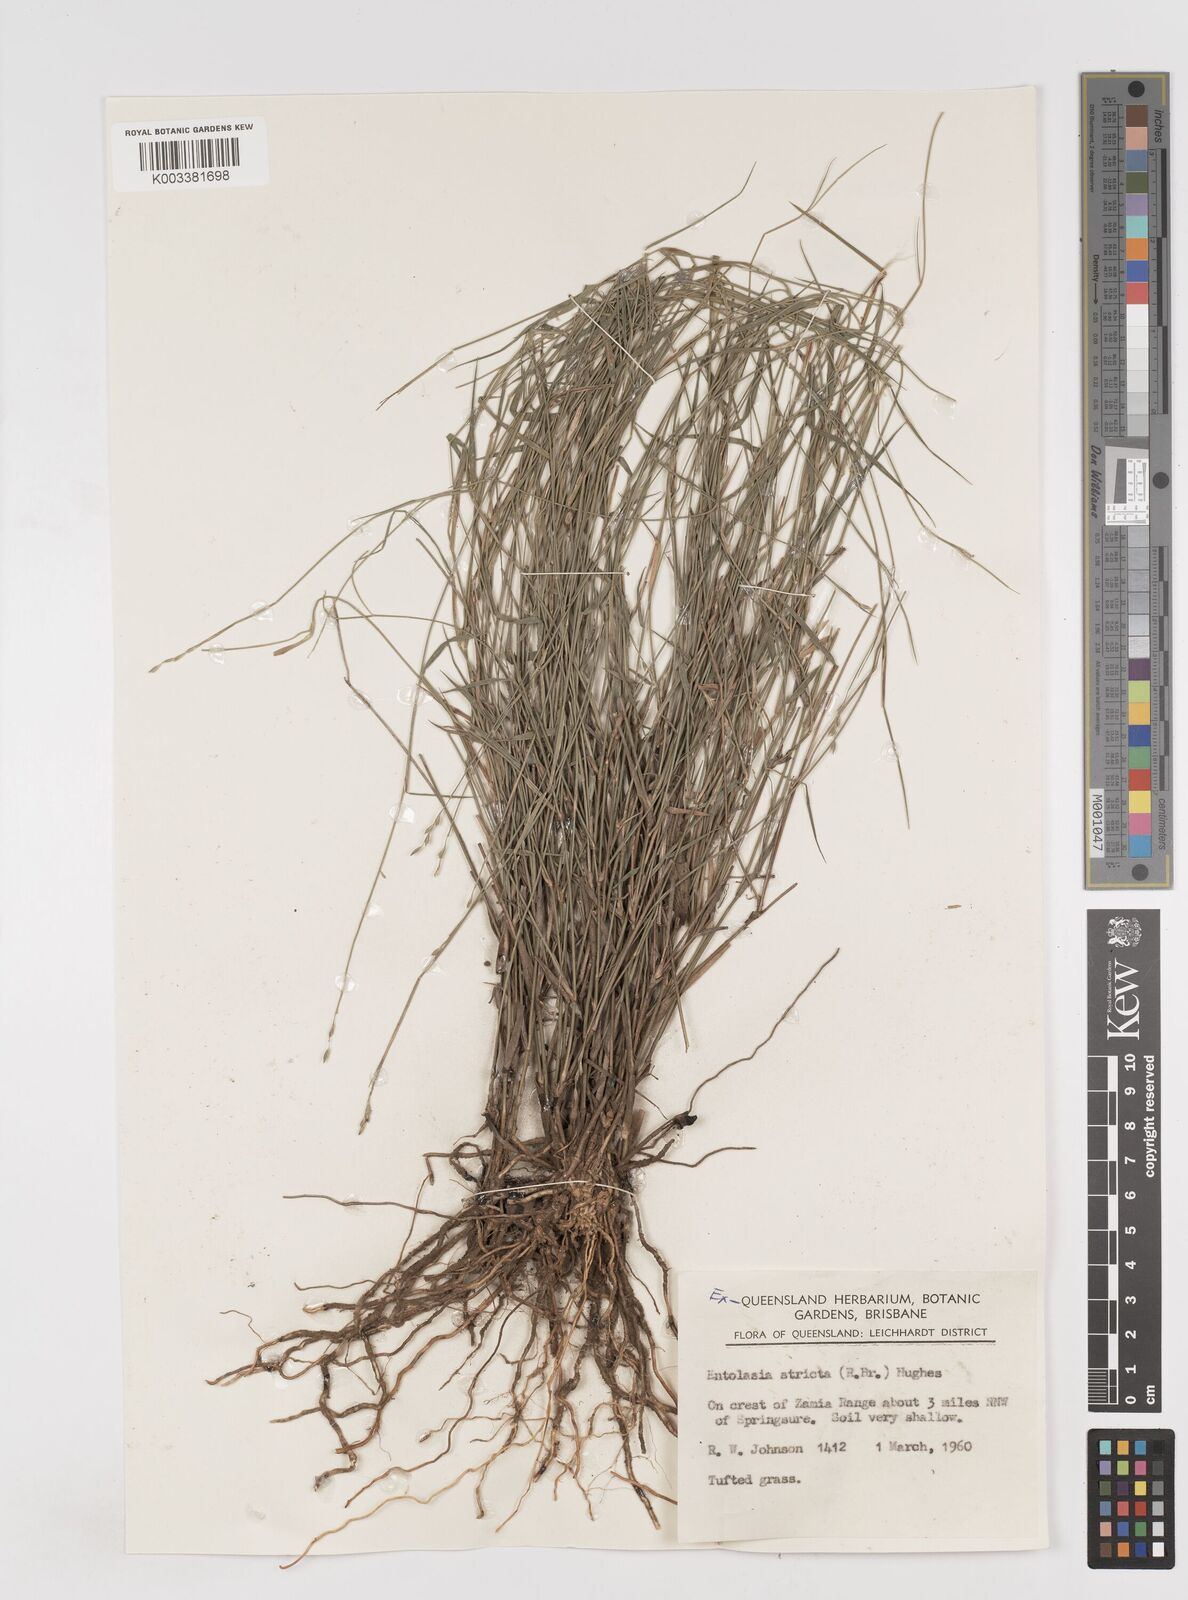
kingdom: Plantae
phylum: Tracheophyta
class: Liliopsida
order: Poales
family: Poaceae
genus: Entolasia
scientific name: Entolasia stricta
